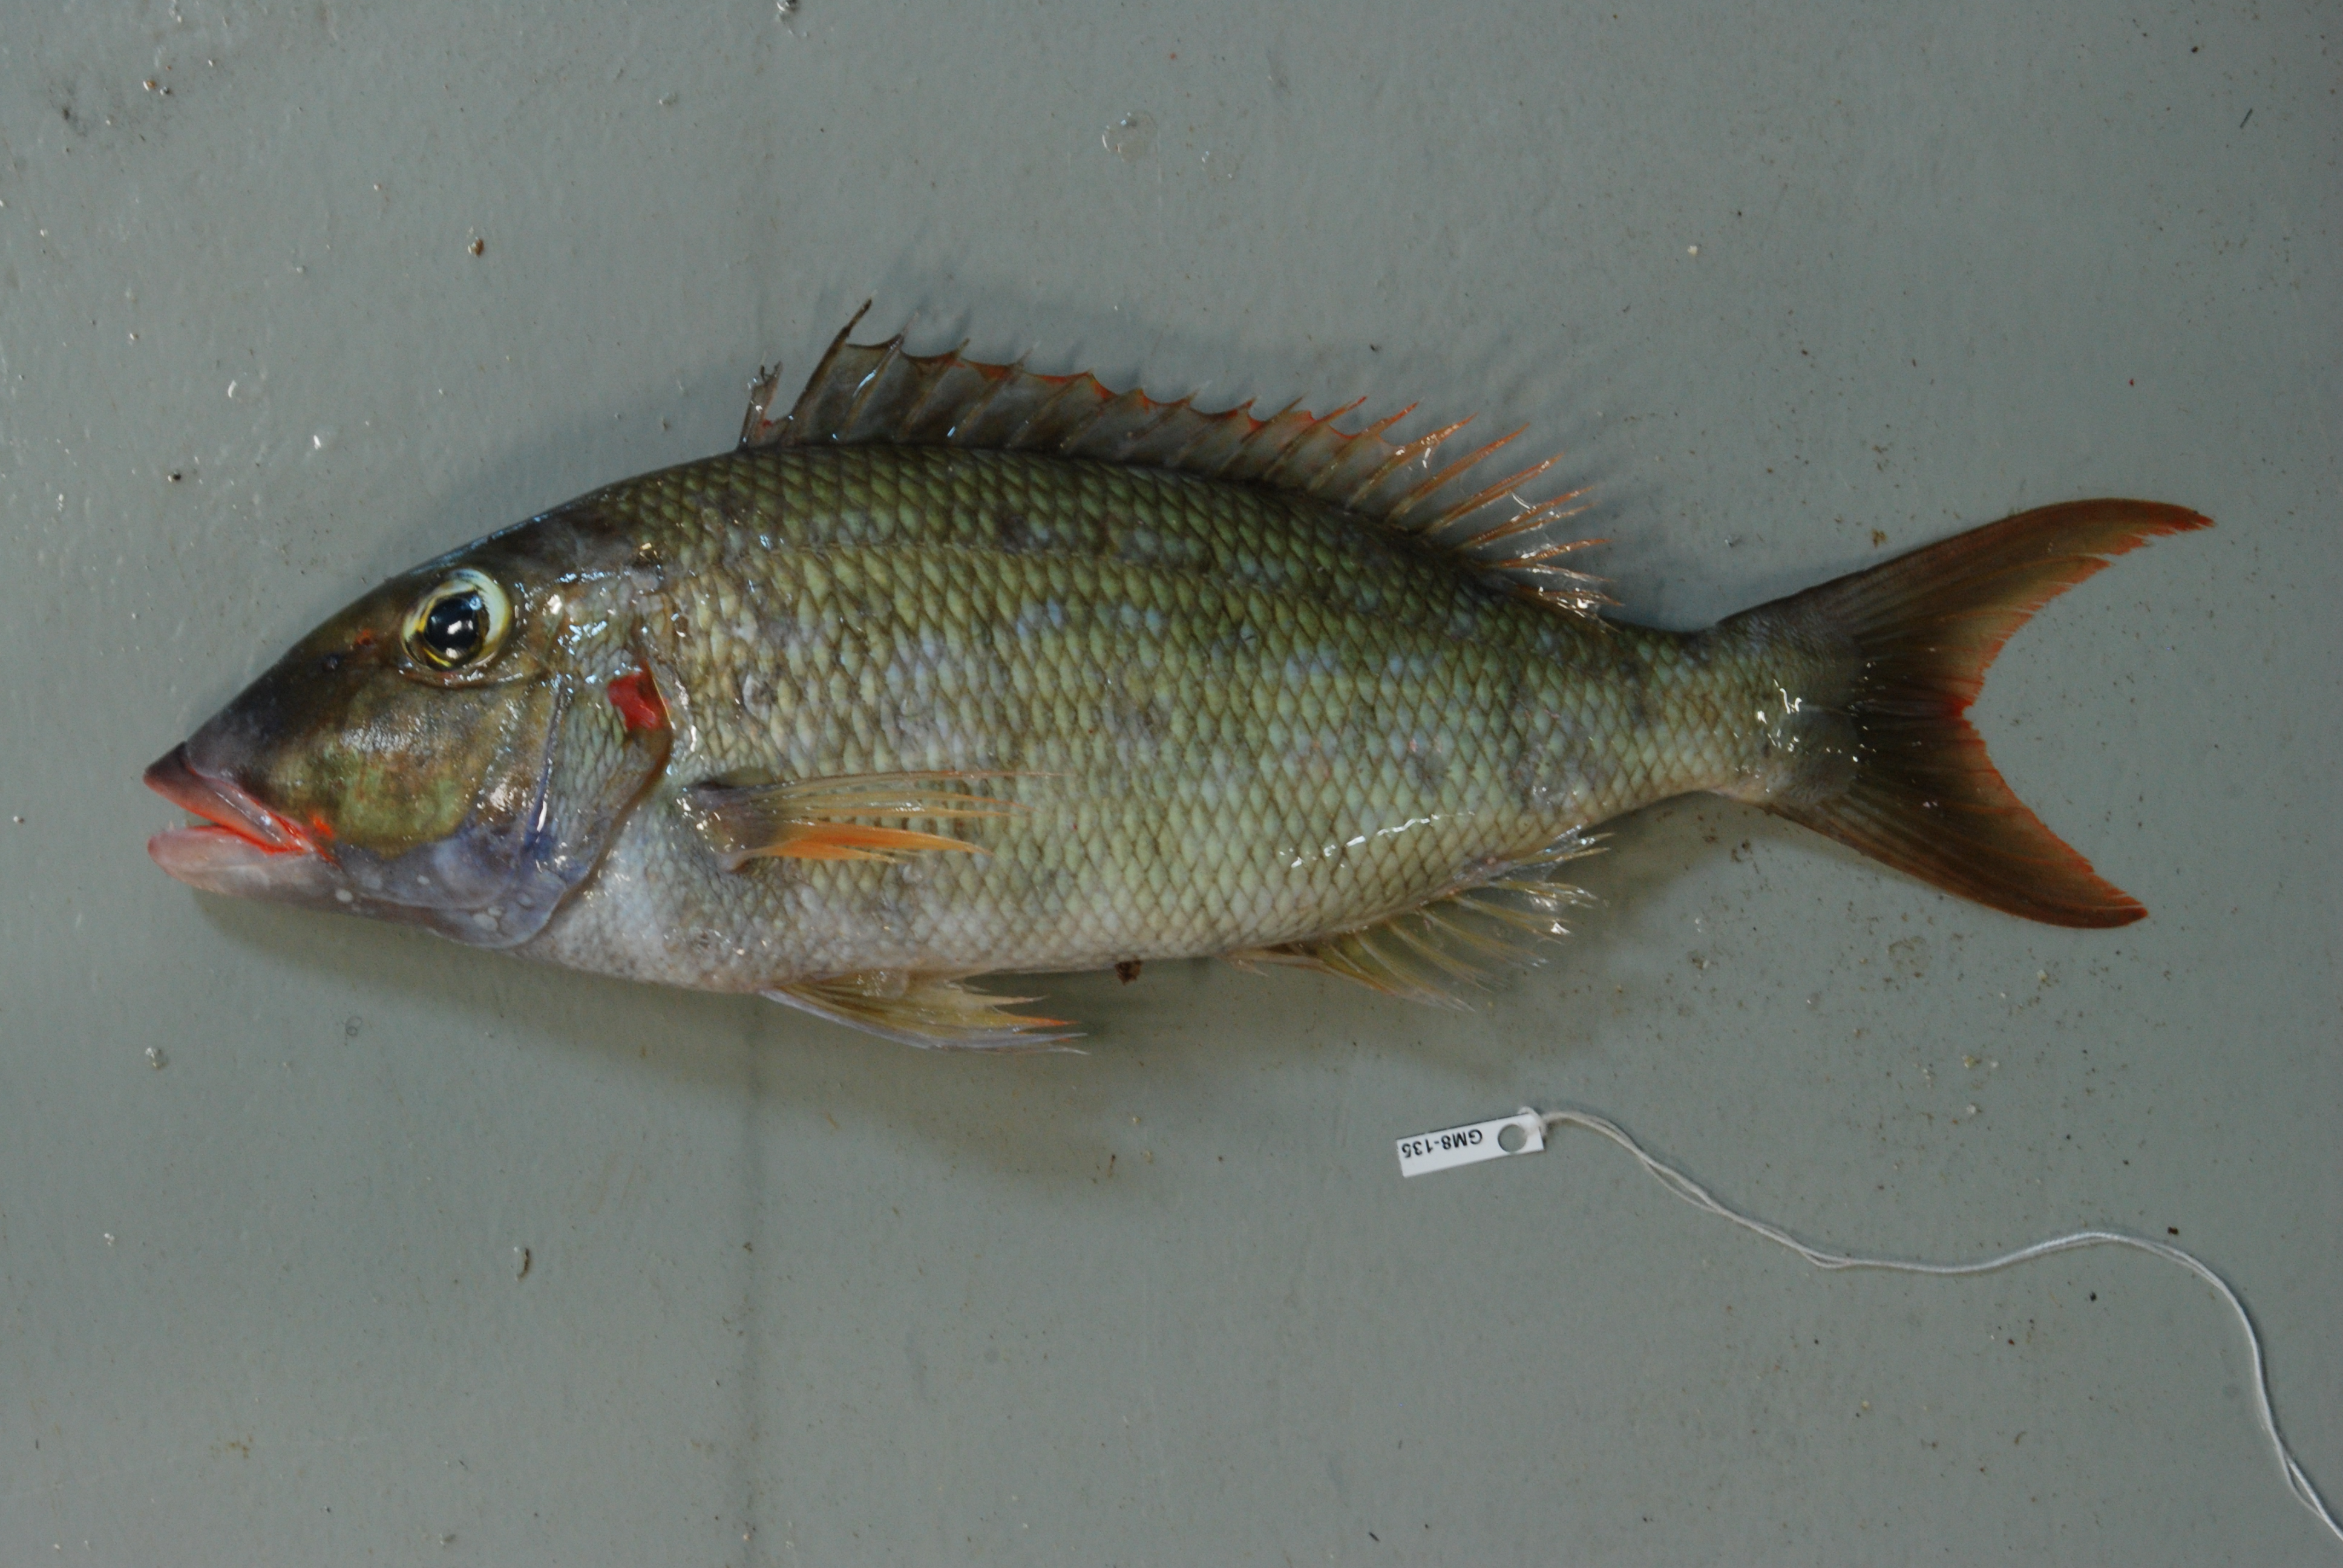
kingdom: Animalia
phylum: Chordata
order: Perciformes
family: Lethrinidae
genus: Lethrinus
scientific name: Lethrinus rubrioperculatus
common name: Spotcheek emperor
